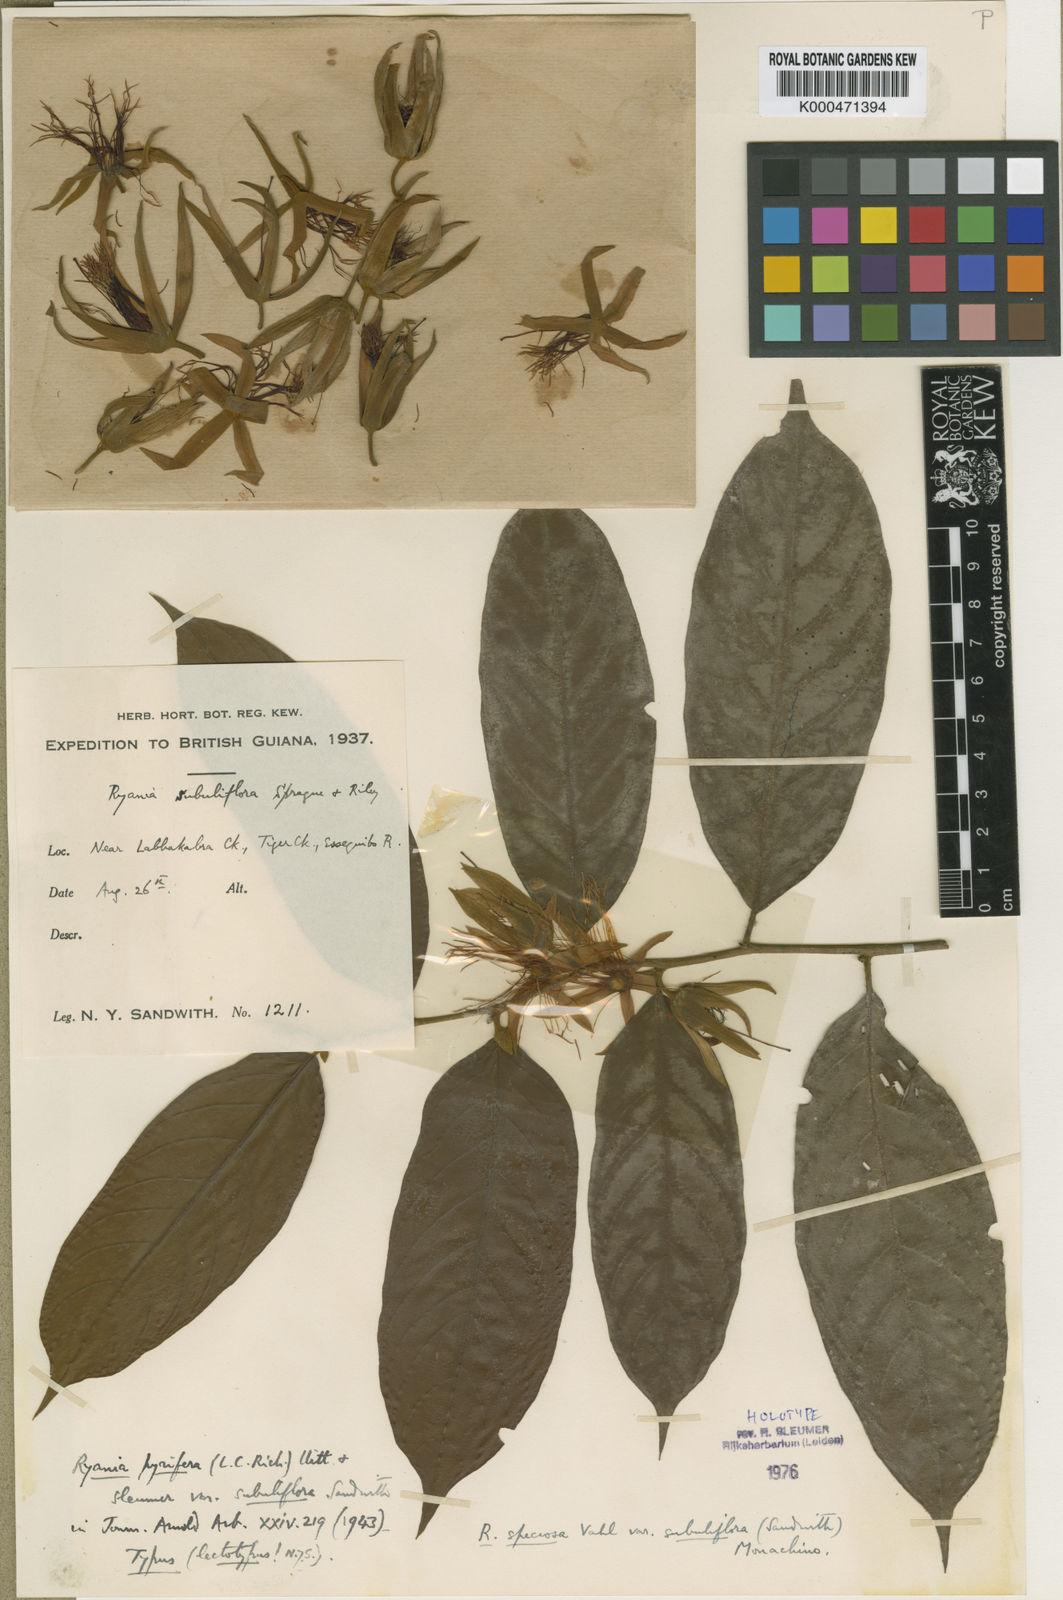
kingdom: Plantae
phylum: Tracheophyta
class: Magnoliopsida
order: Malpighiales
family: Salicaceae
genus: Ryania
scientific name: Ryania speciosa
